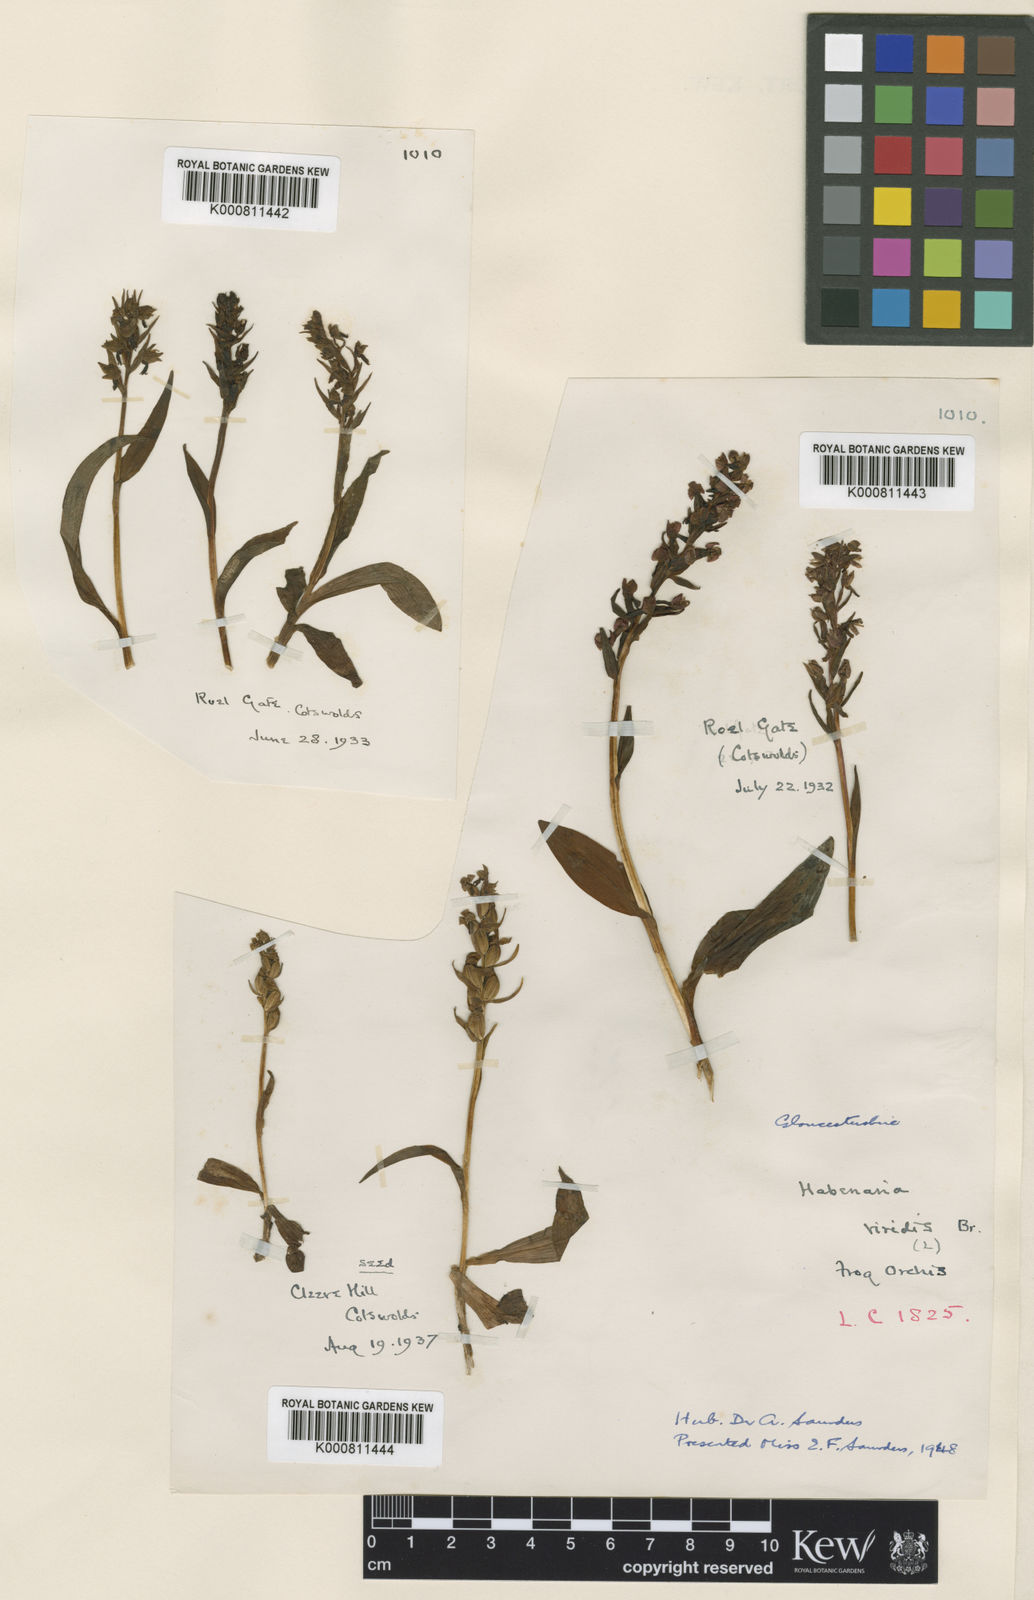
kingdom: Plantae
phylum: Tracheophyta
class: Liliopsida
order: Asparagales
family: Orchidaceae
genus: Dactylorhiza
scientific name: Dactylorhiza viridis
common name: Longbract frog orchid
